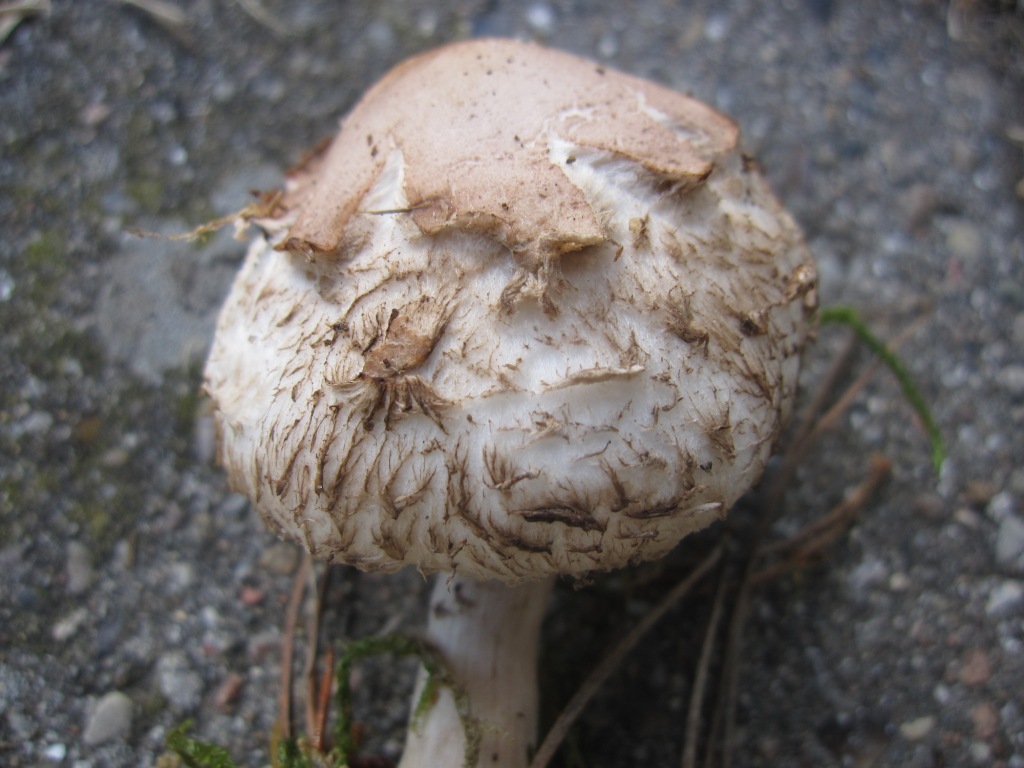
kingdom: Fungi
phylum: Basidiomycota
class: Agaricomycetes
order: Agaricales
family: Agaricaceae
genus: Chlorophyllum
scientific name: Chlorophyllum rhacodes
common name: ægte rabarberhat
